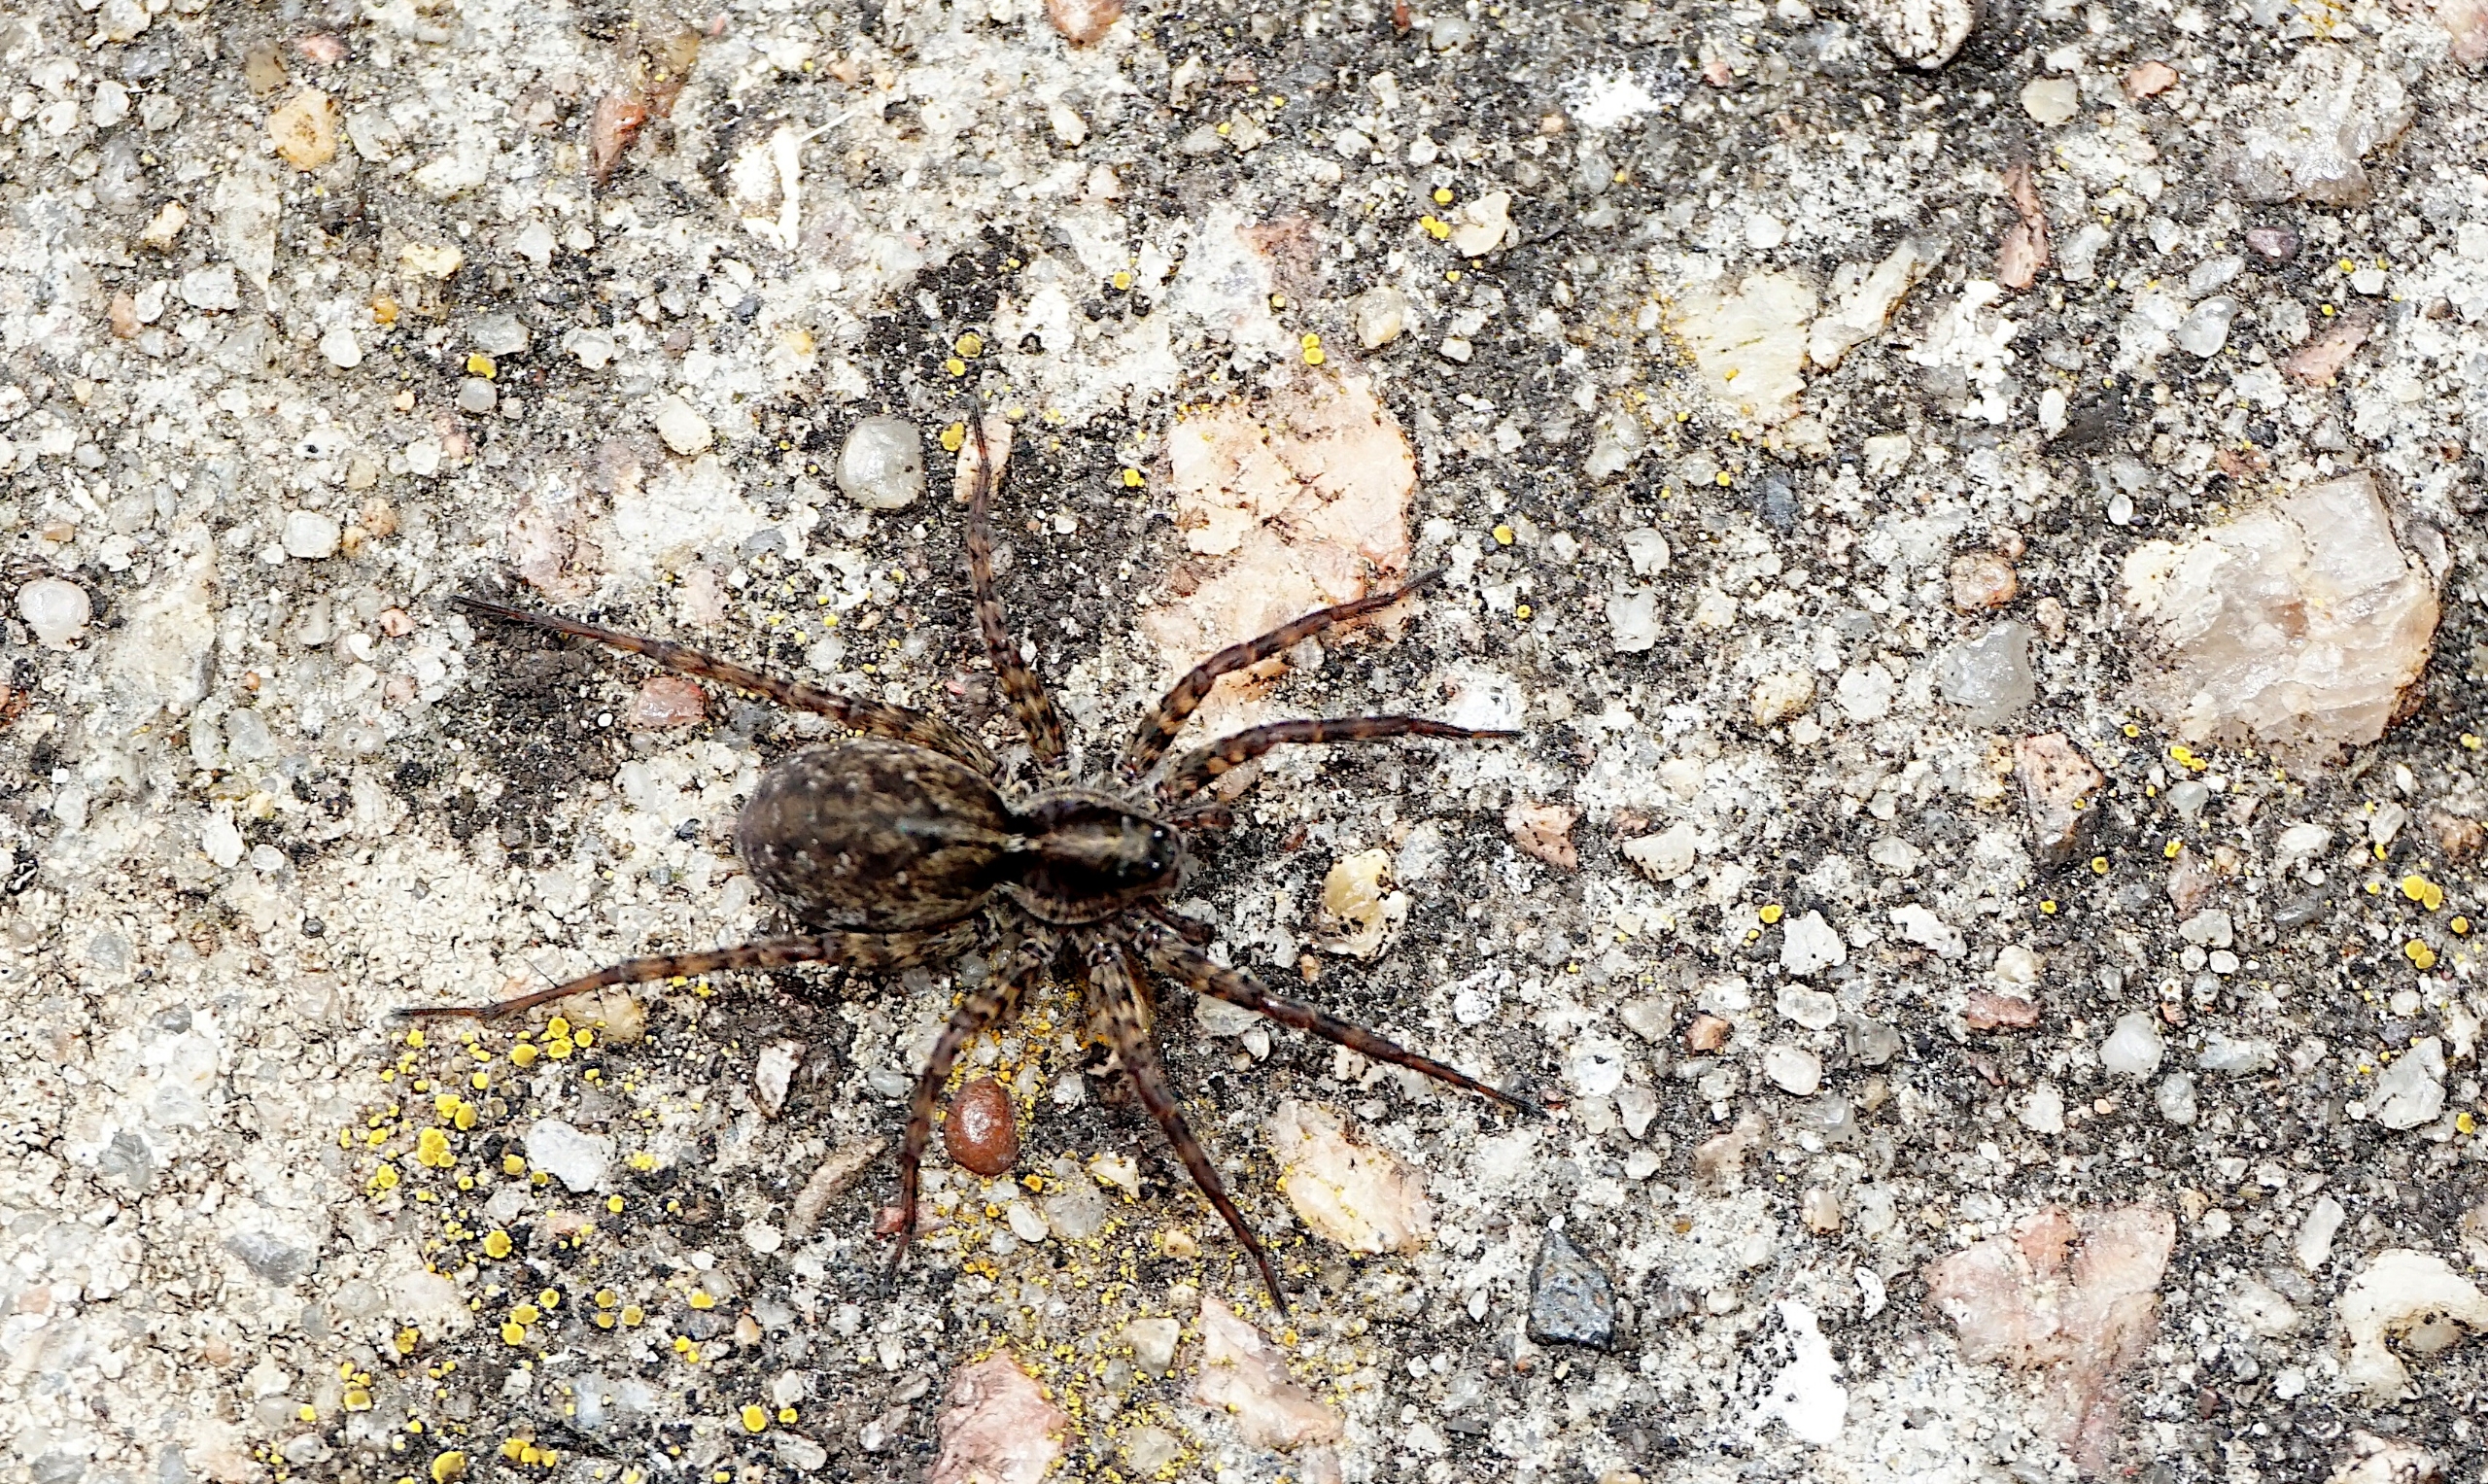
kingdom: Animalia
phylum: Arthropoda
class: Arachnida
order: Araneae
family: Lycosidae
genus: Pardosa
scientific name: Pardosa
